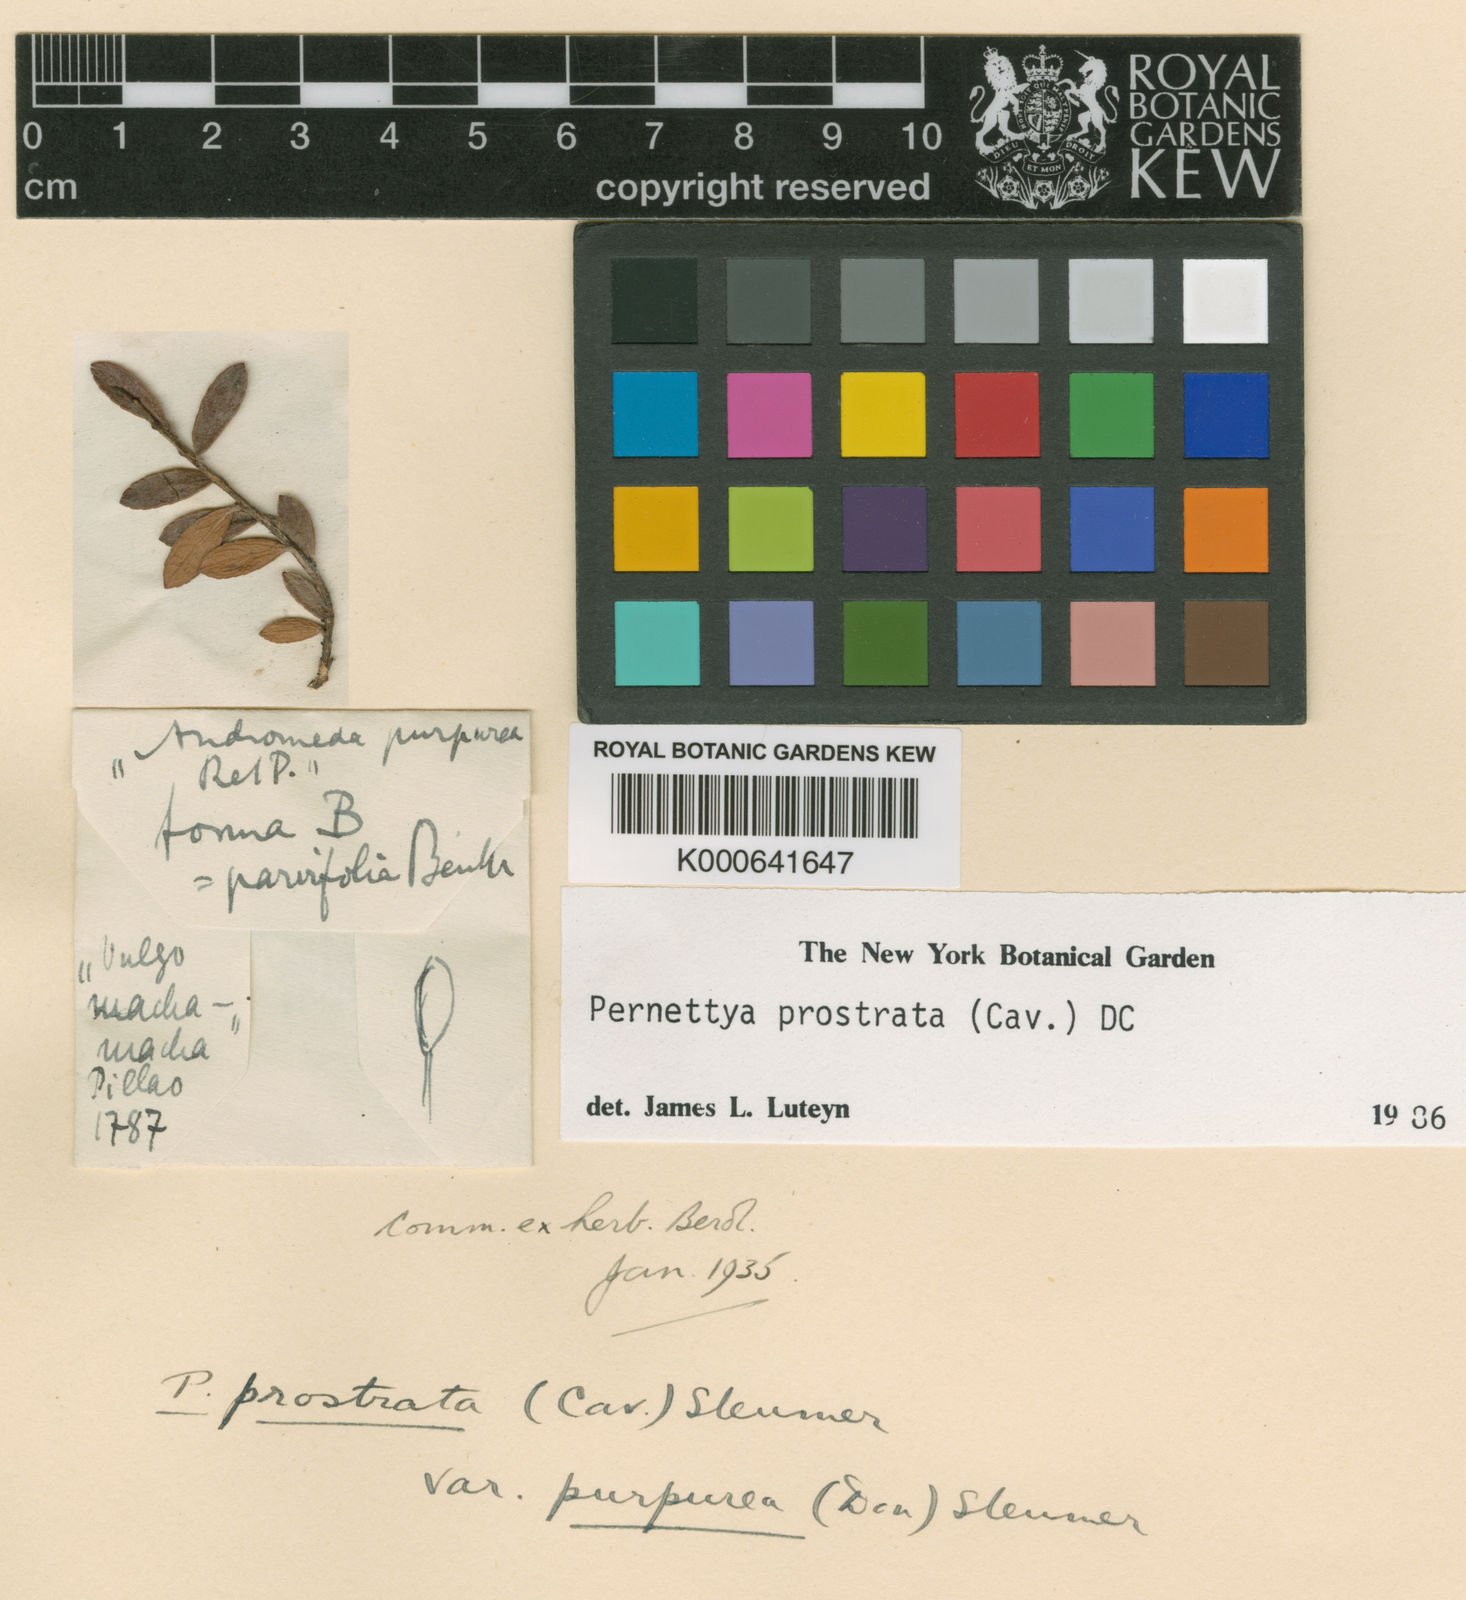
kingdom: Plantae
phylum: Tracheophyta
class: Magnoliopsida
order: Ericales
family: Ericaceae
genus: Gaultheria
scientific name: Gaultheria myrsinoides
